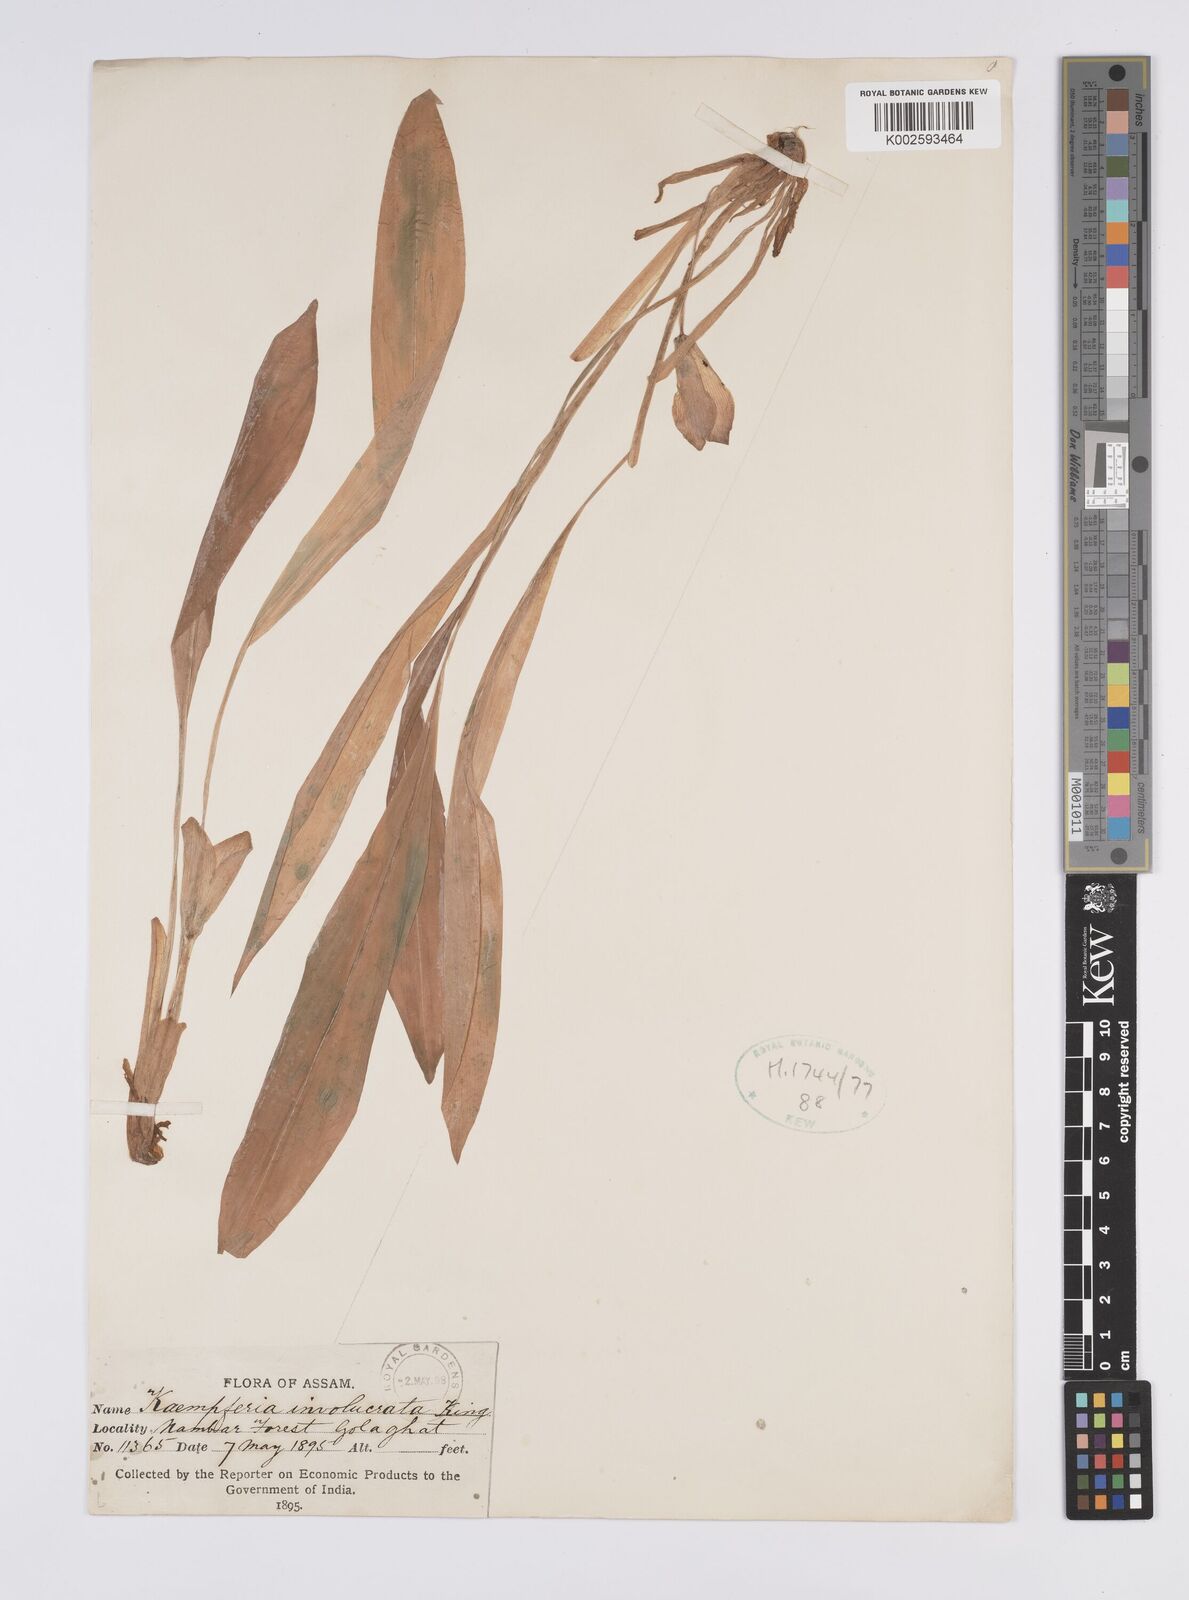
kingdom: Plantae
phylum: Tracheophyta
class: Liliopsida
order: Zingiberales
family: Zingiberaceae
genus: Curcuma
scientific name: Curcuma involucrata
